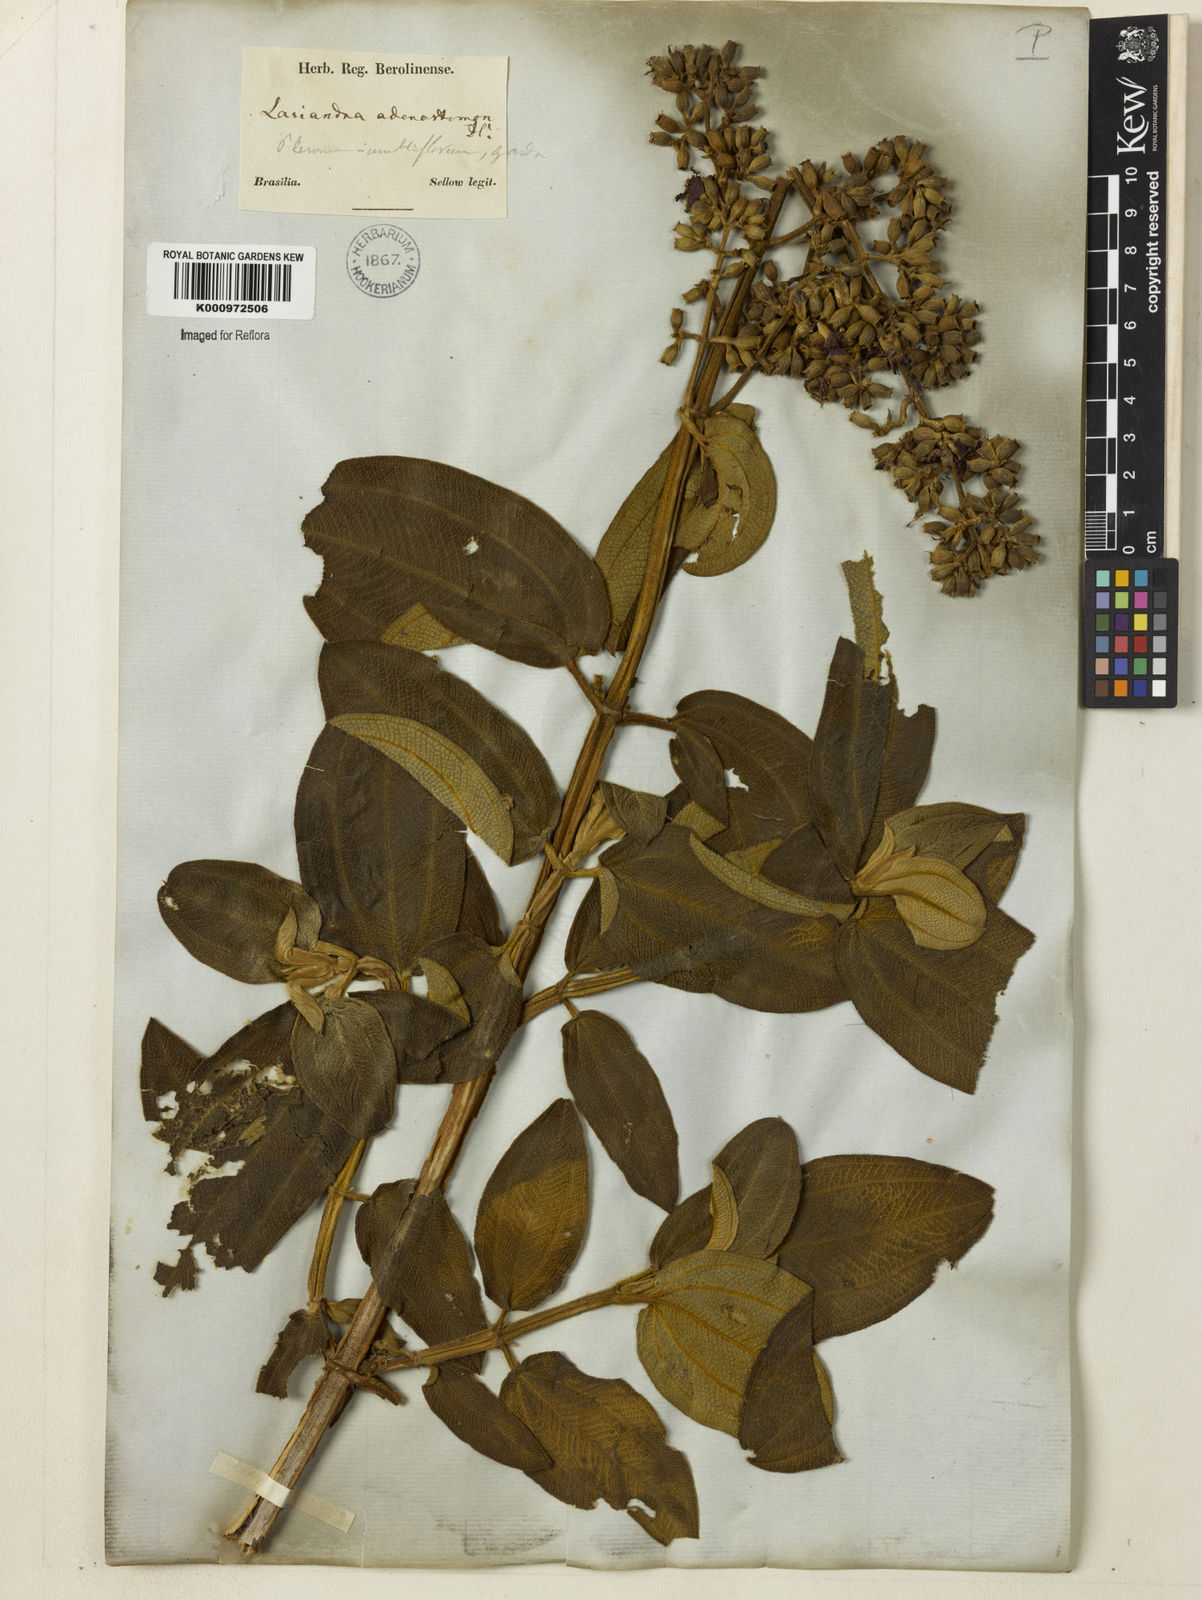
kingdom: Plantae
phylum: Tracheophyta
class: Magnoliopsida
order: Myrtales
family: Melastomataceae
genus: Pleroma
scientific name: Pleroma heteromallum
